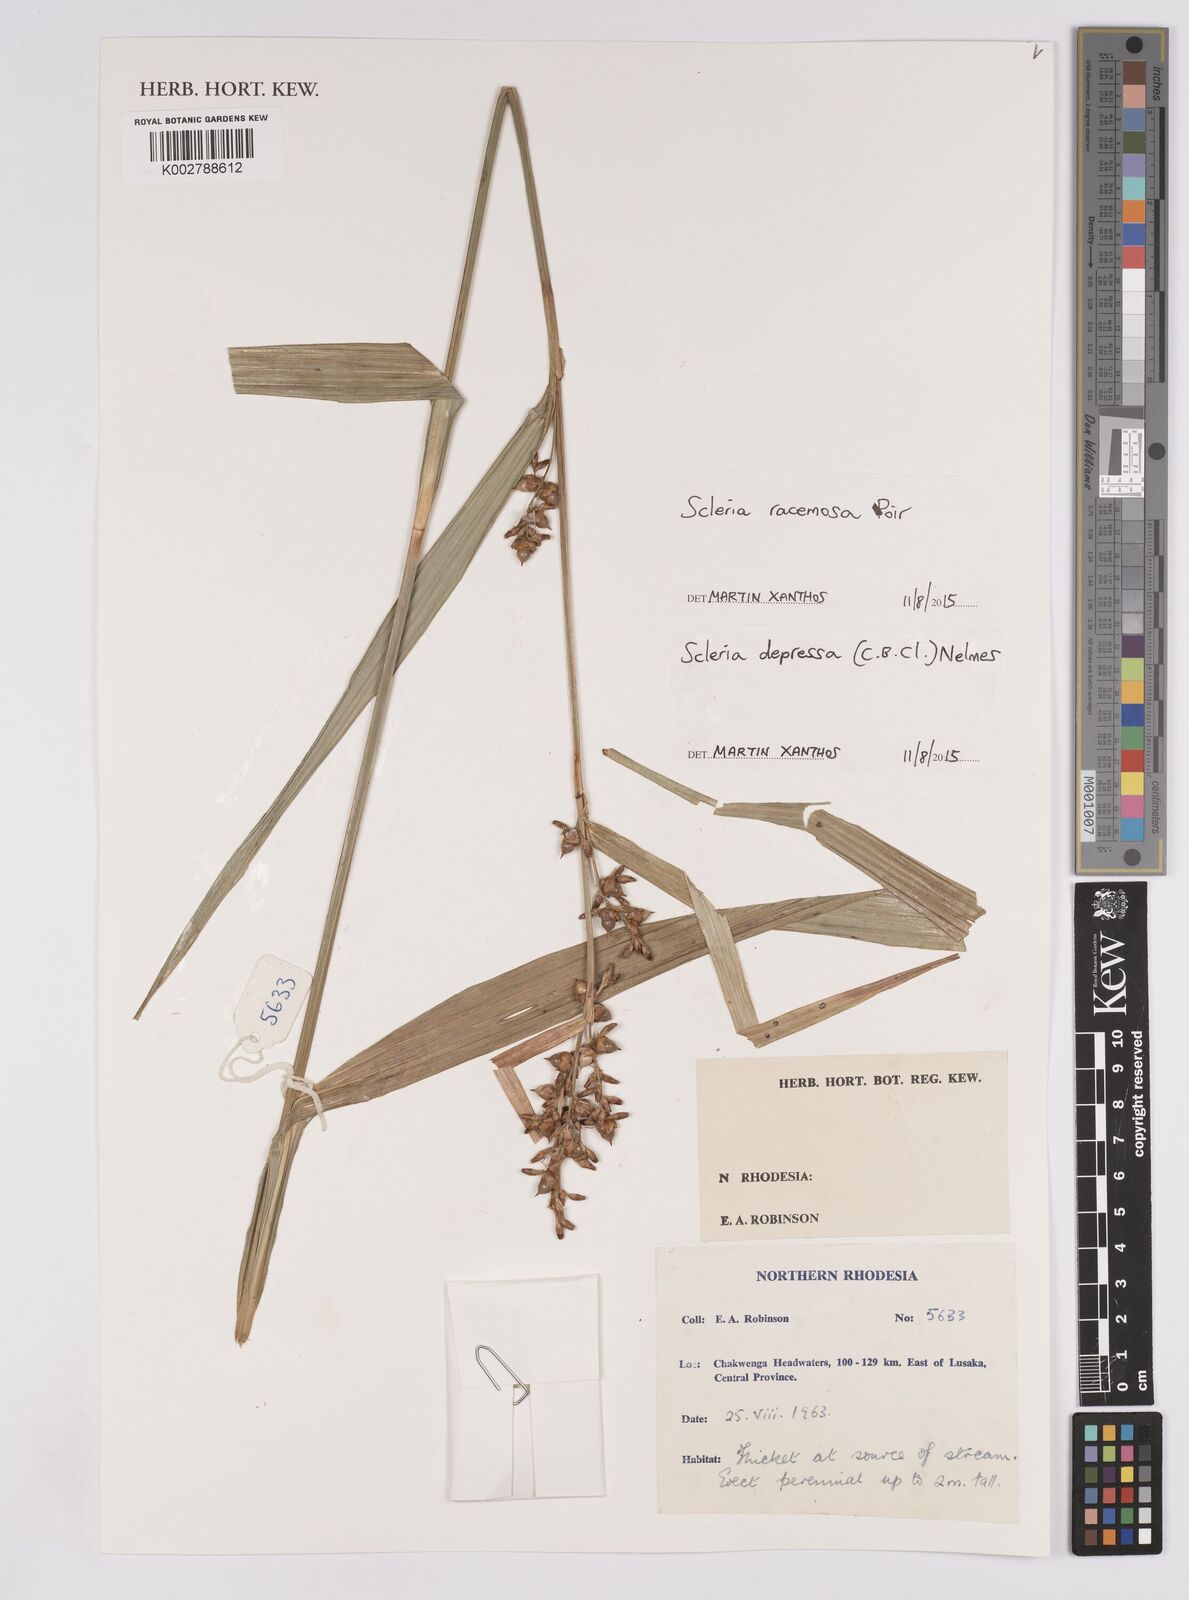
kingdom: Plantae
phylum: Tracheophyta
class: Liliopsida
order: Poales
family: Cyperaceae
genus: Scleria
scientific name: Scleria racemosa
